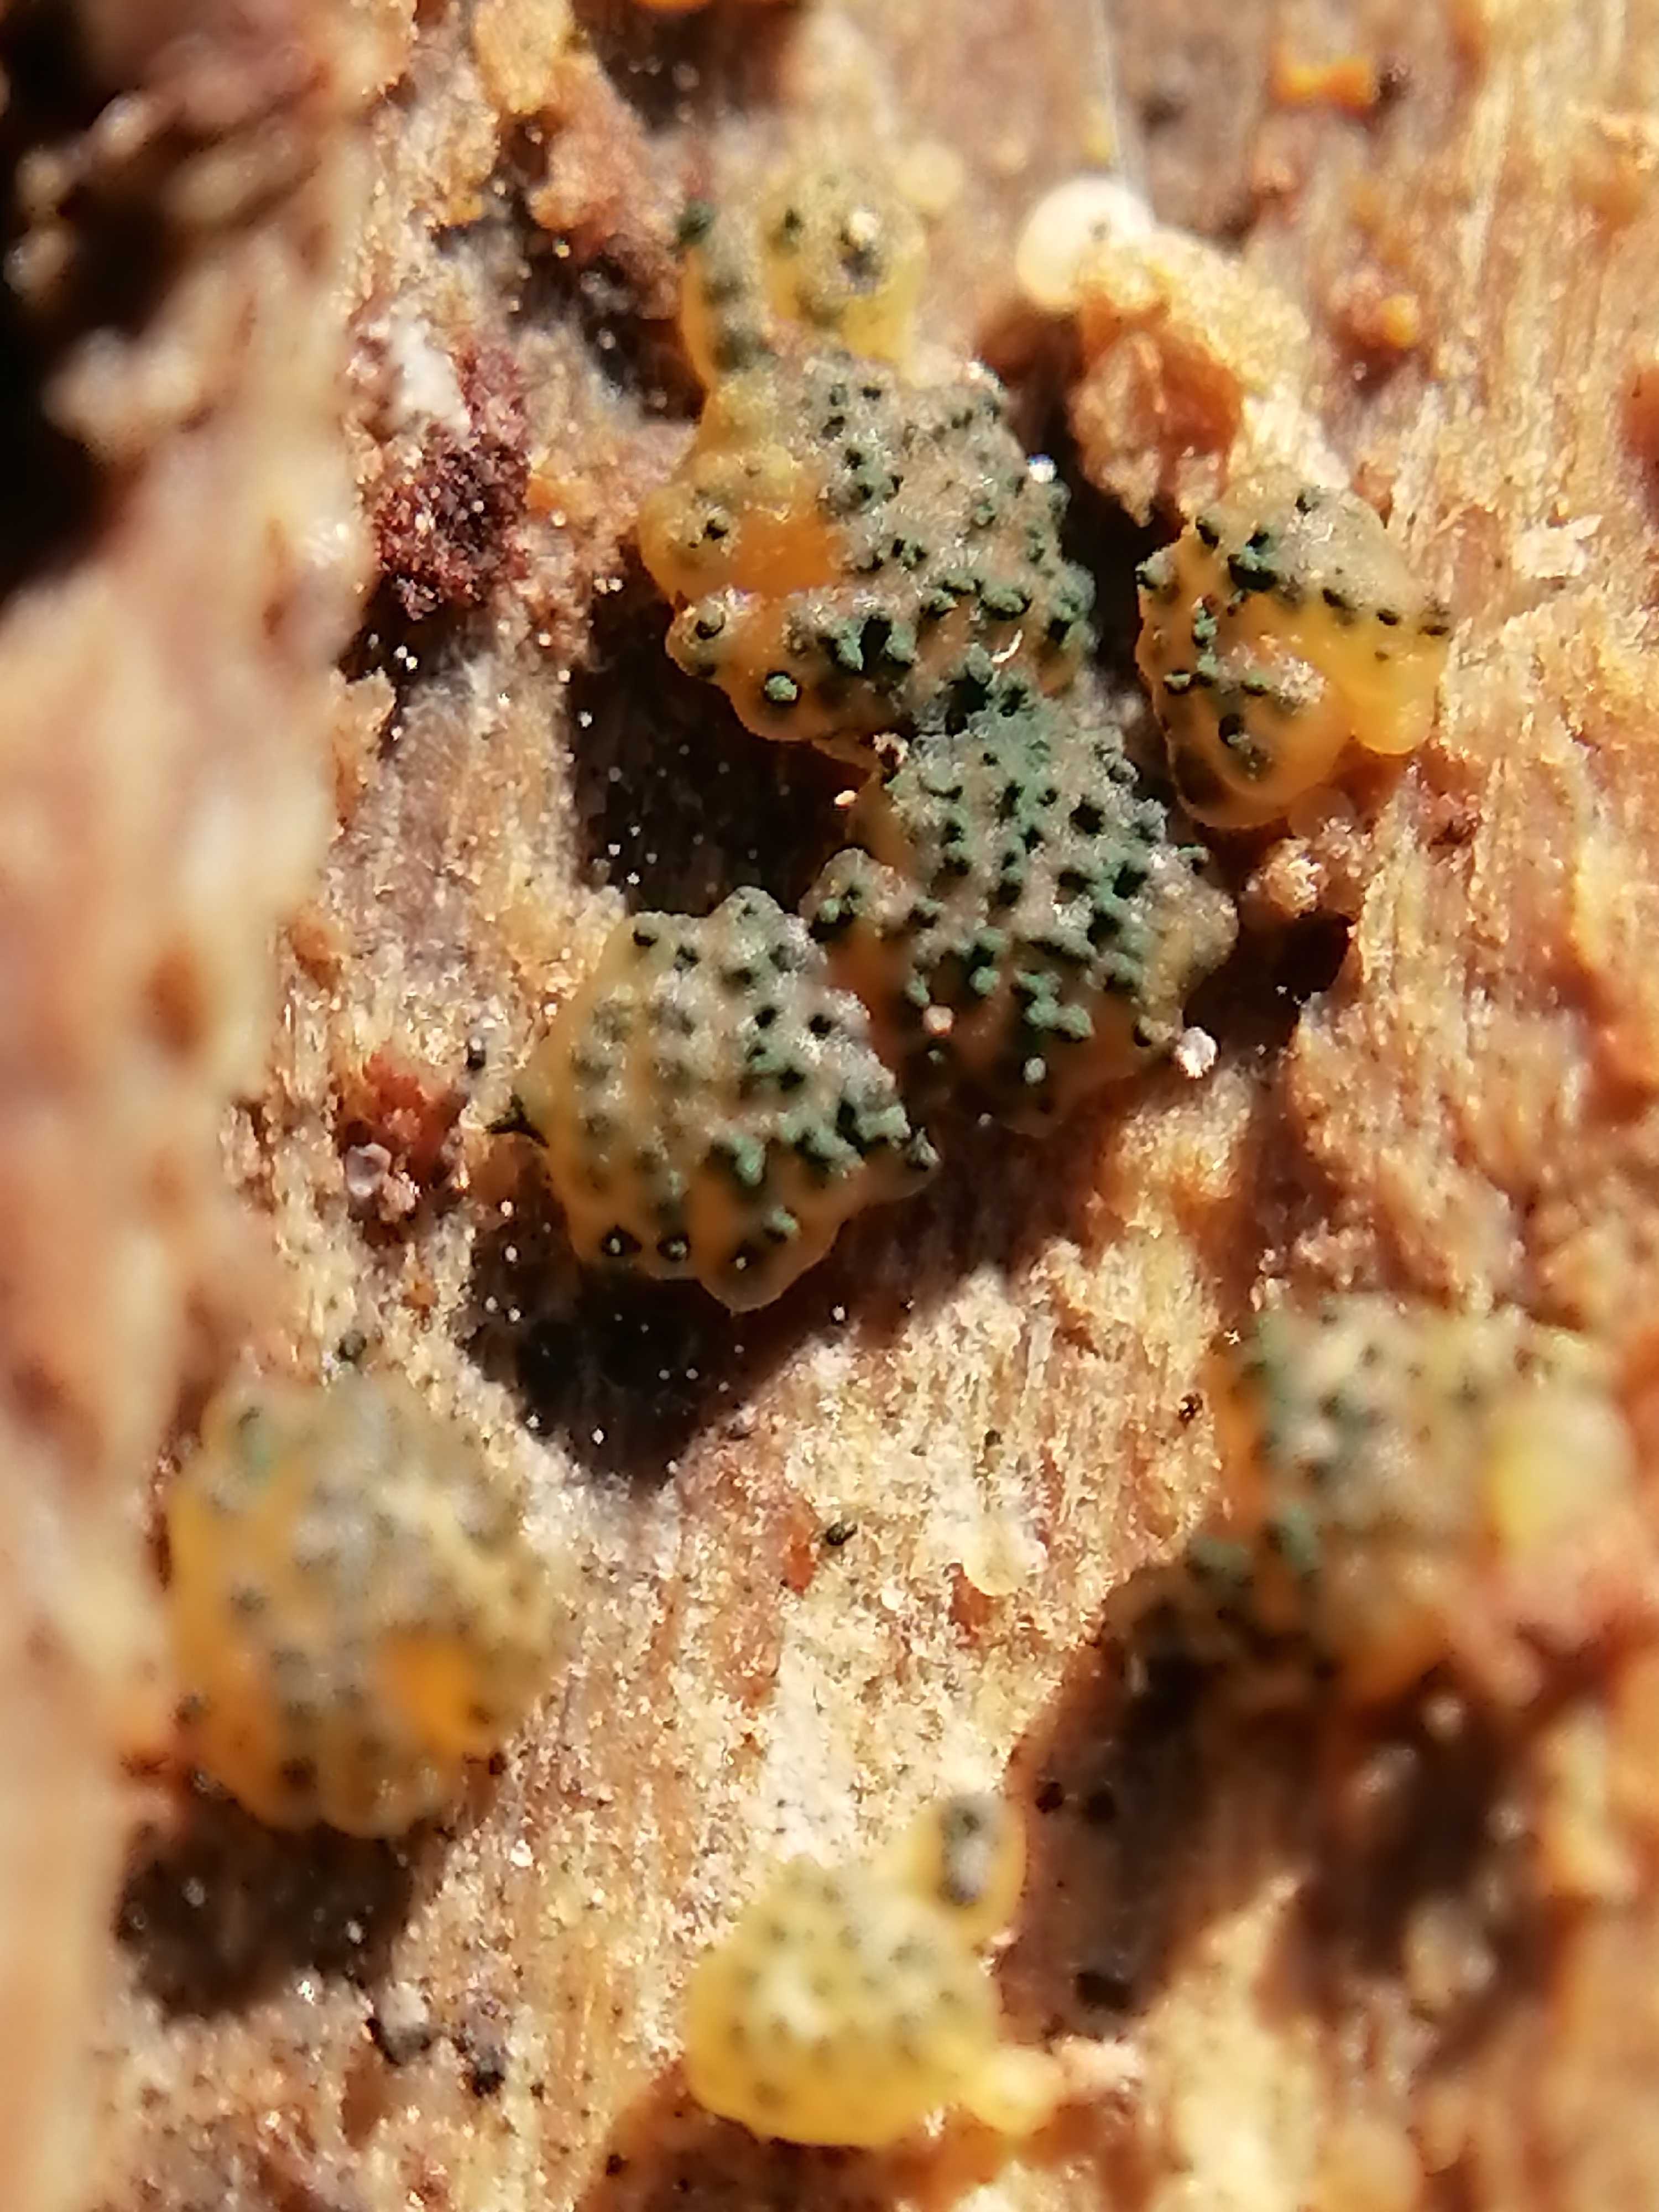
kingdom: Fungi
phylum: Ascomycota
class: Sordariomycetes
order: Hypocreales
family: Hypocreaceae
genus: Trichoderma
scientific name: Trichoderma gelatinosum
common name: geleagtig kødkerne
